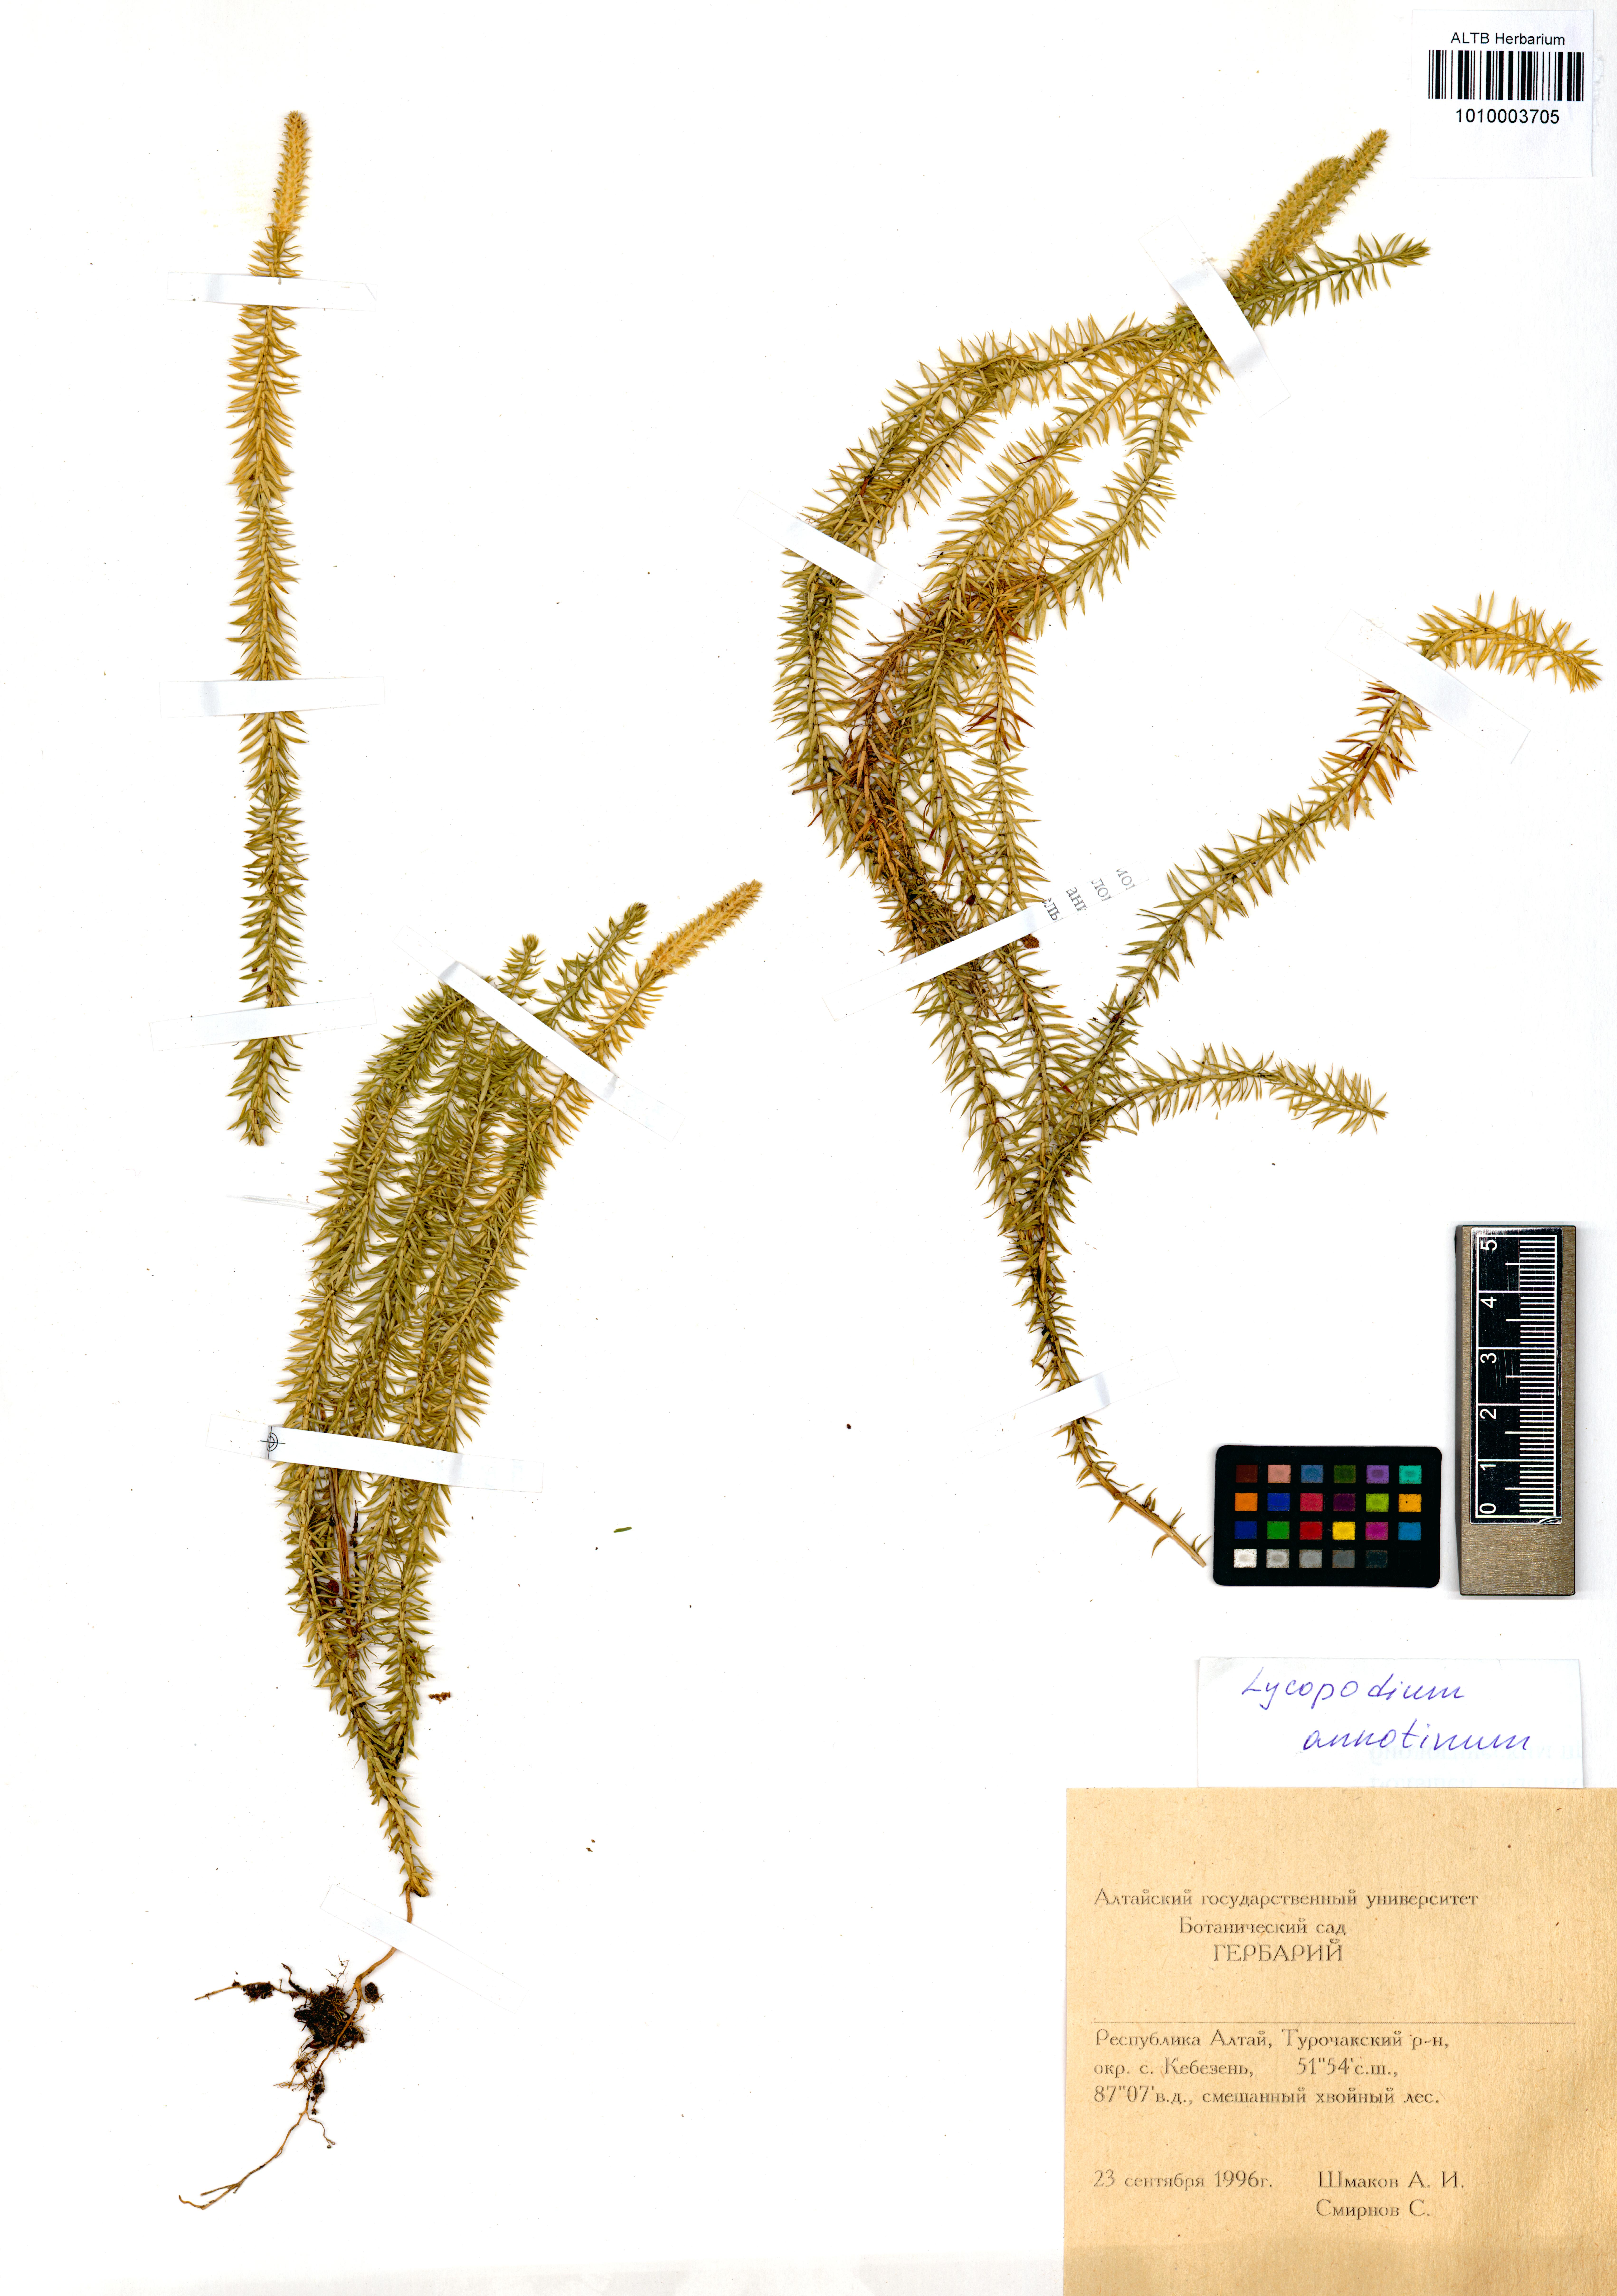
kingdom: Plantae
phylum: Tracheophyta
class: Lycopodiopsida
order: Lycopodiales
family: Lycopodiaceae
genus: Spinulum
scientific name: Spinulum annotinum
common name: Interrupted club-moss
